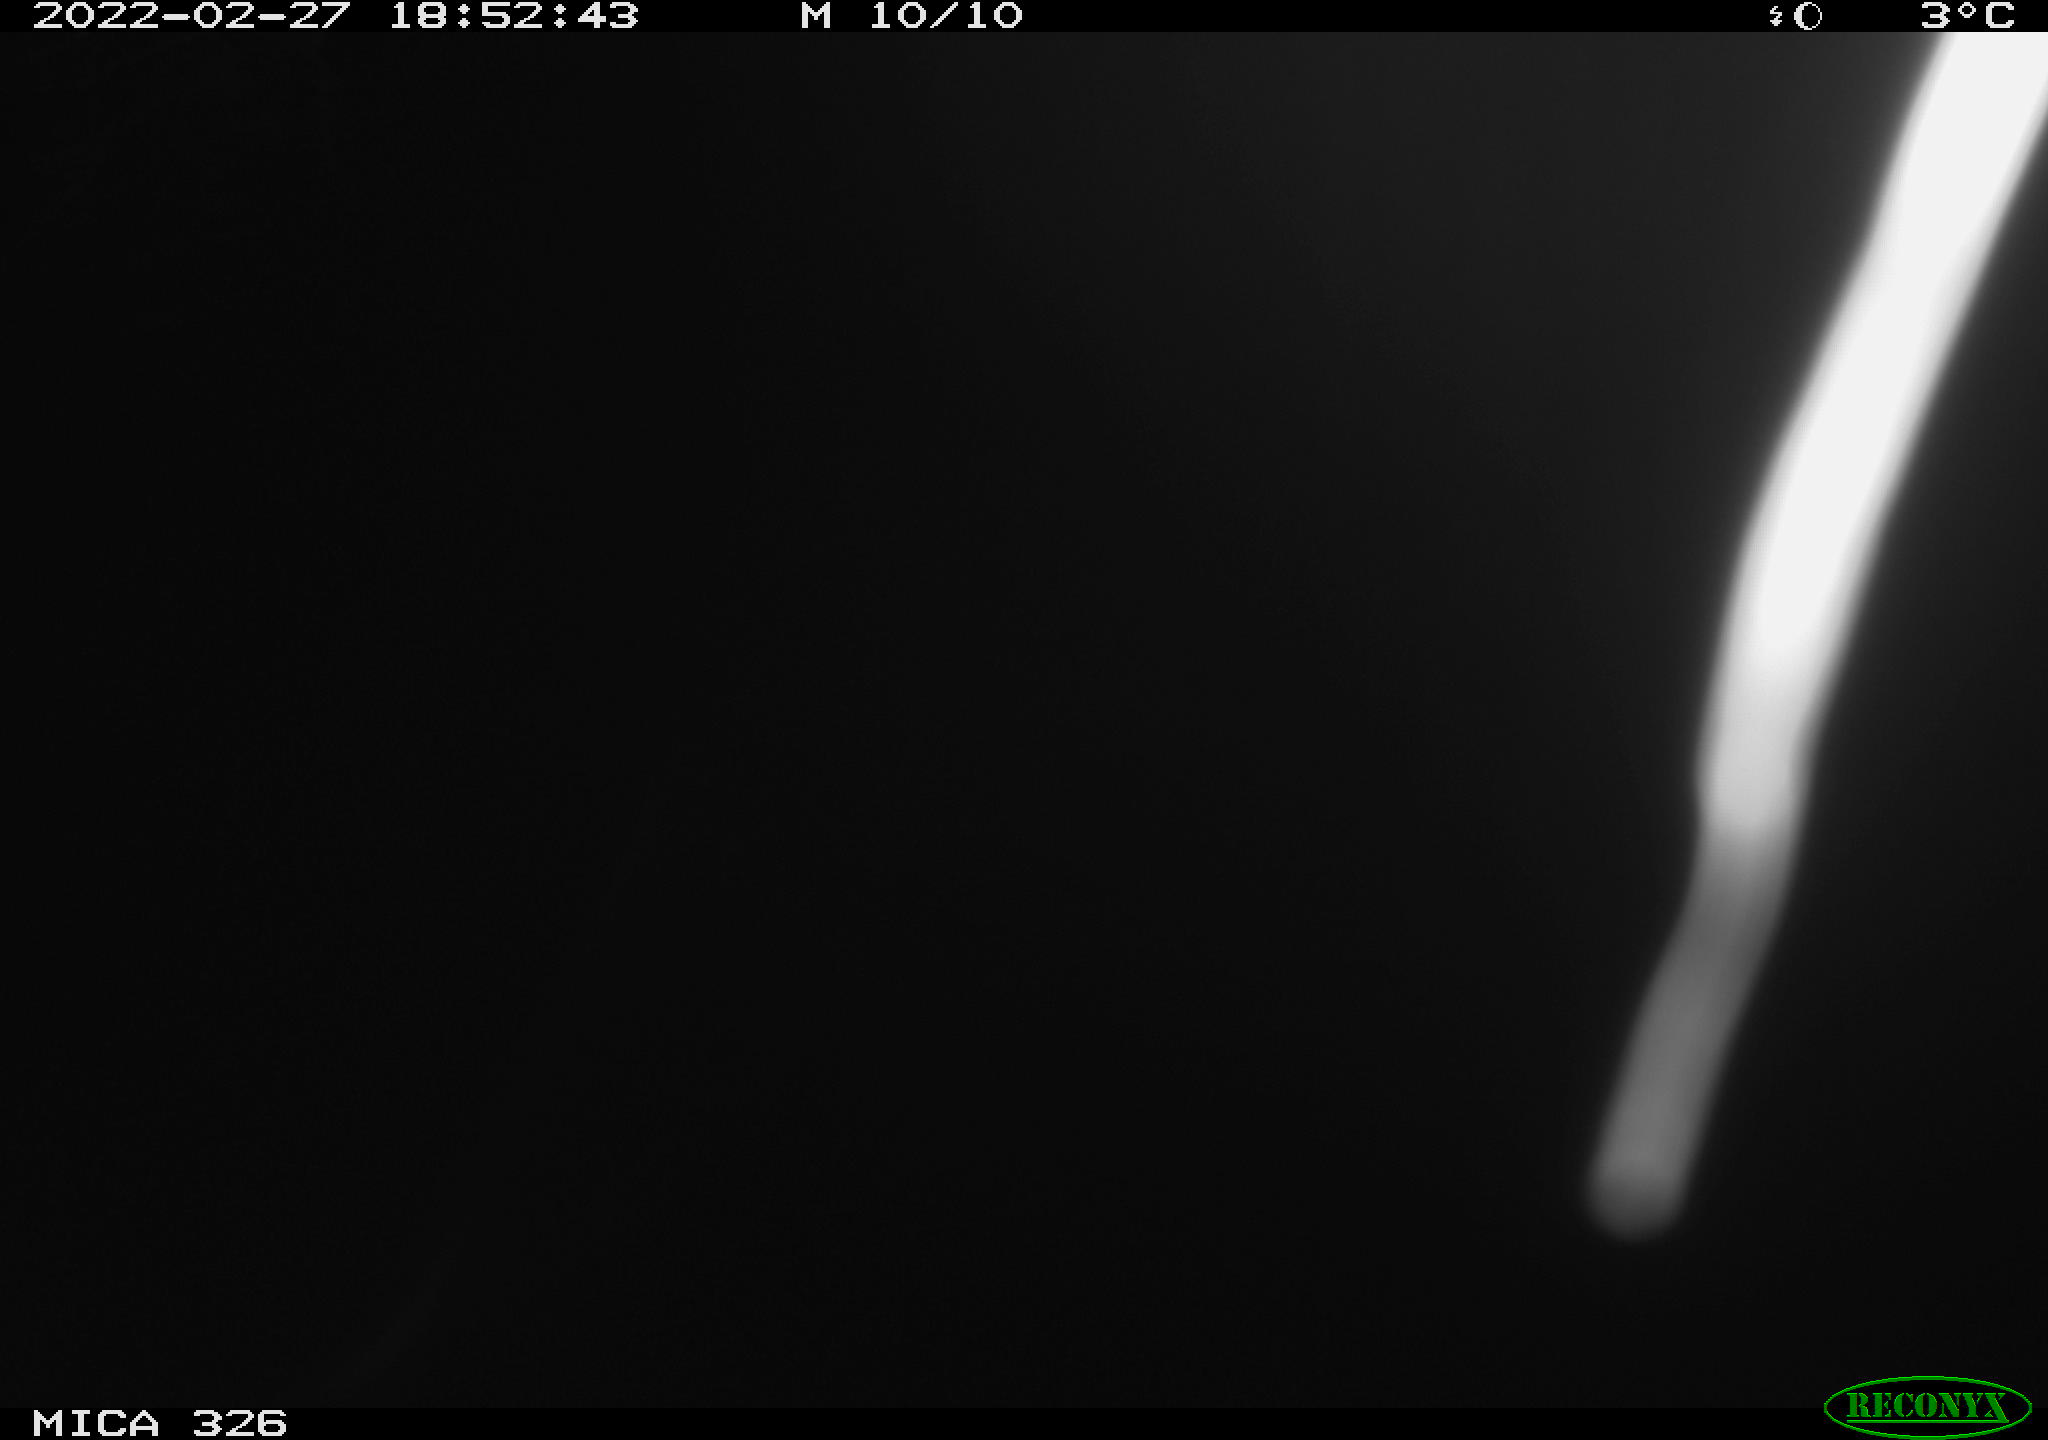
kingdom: Animalia
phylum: Chordata
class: Mammalia
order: Rodentia
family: Cricetidae
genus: Ondatra
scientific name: Ondatra zibethicus
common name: Muskrat
